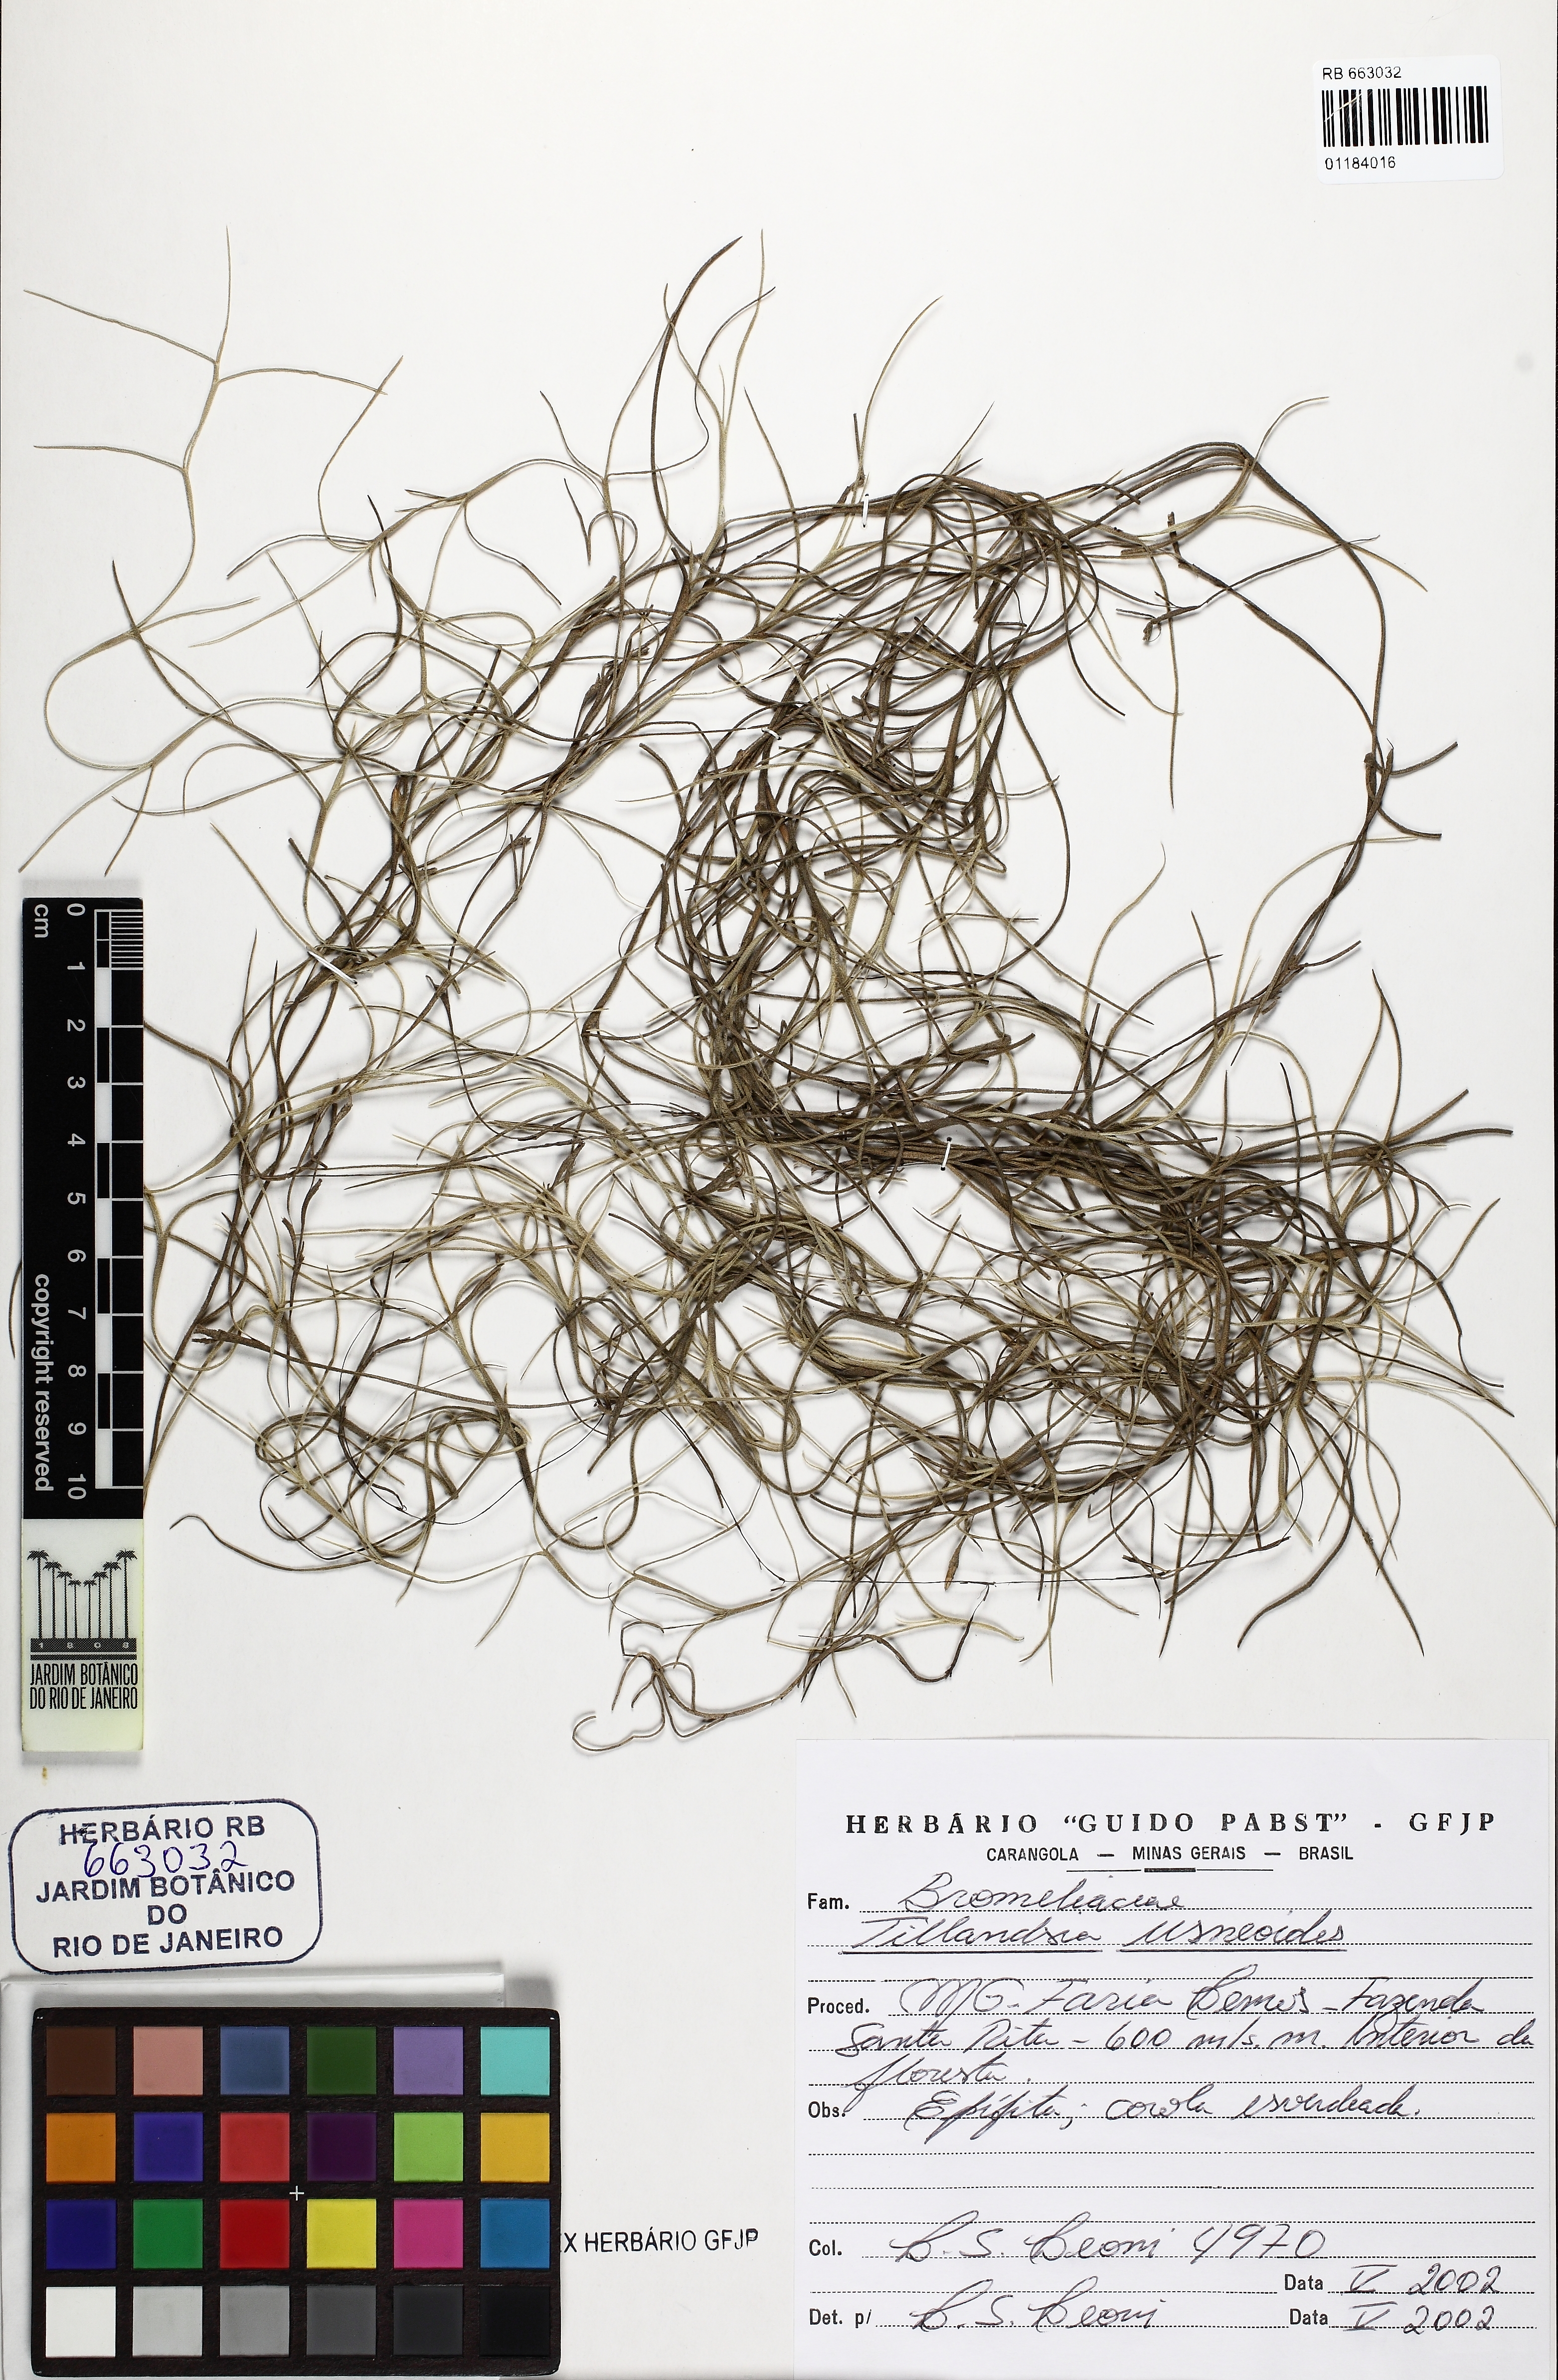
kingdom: Plantae
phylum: Tracheophyta
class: Liliopsida
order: Poales
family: Bromeliaceae
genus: Tillandsia
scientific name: Tillandsia usneoides
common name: Spanish moss
